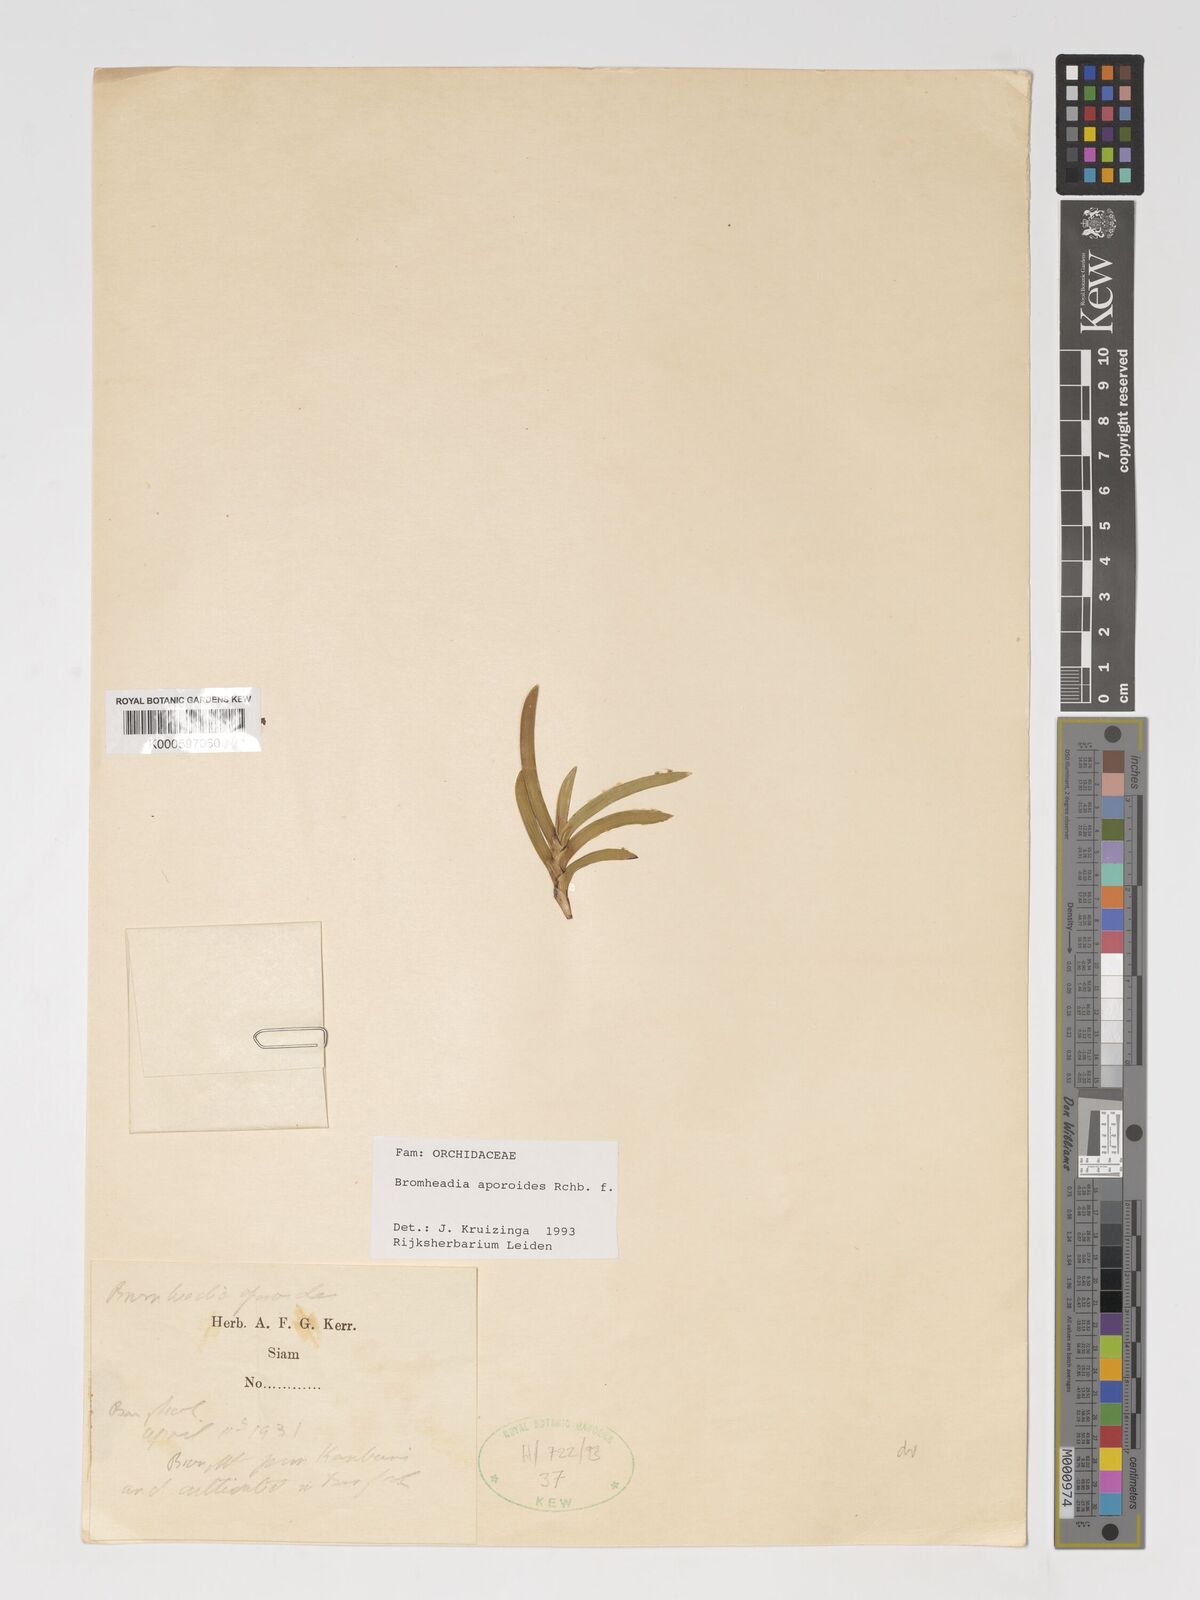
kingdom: Plantae
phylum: Tracheophyta
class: Liliopsida
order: Asparagales
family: Orchidaceae
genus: Bromheadia
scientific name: Bromheadia aporoides
